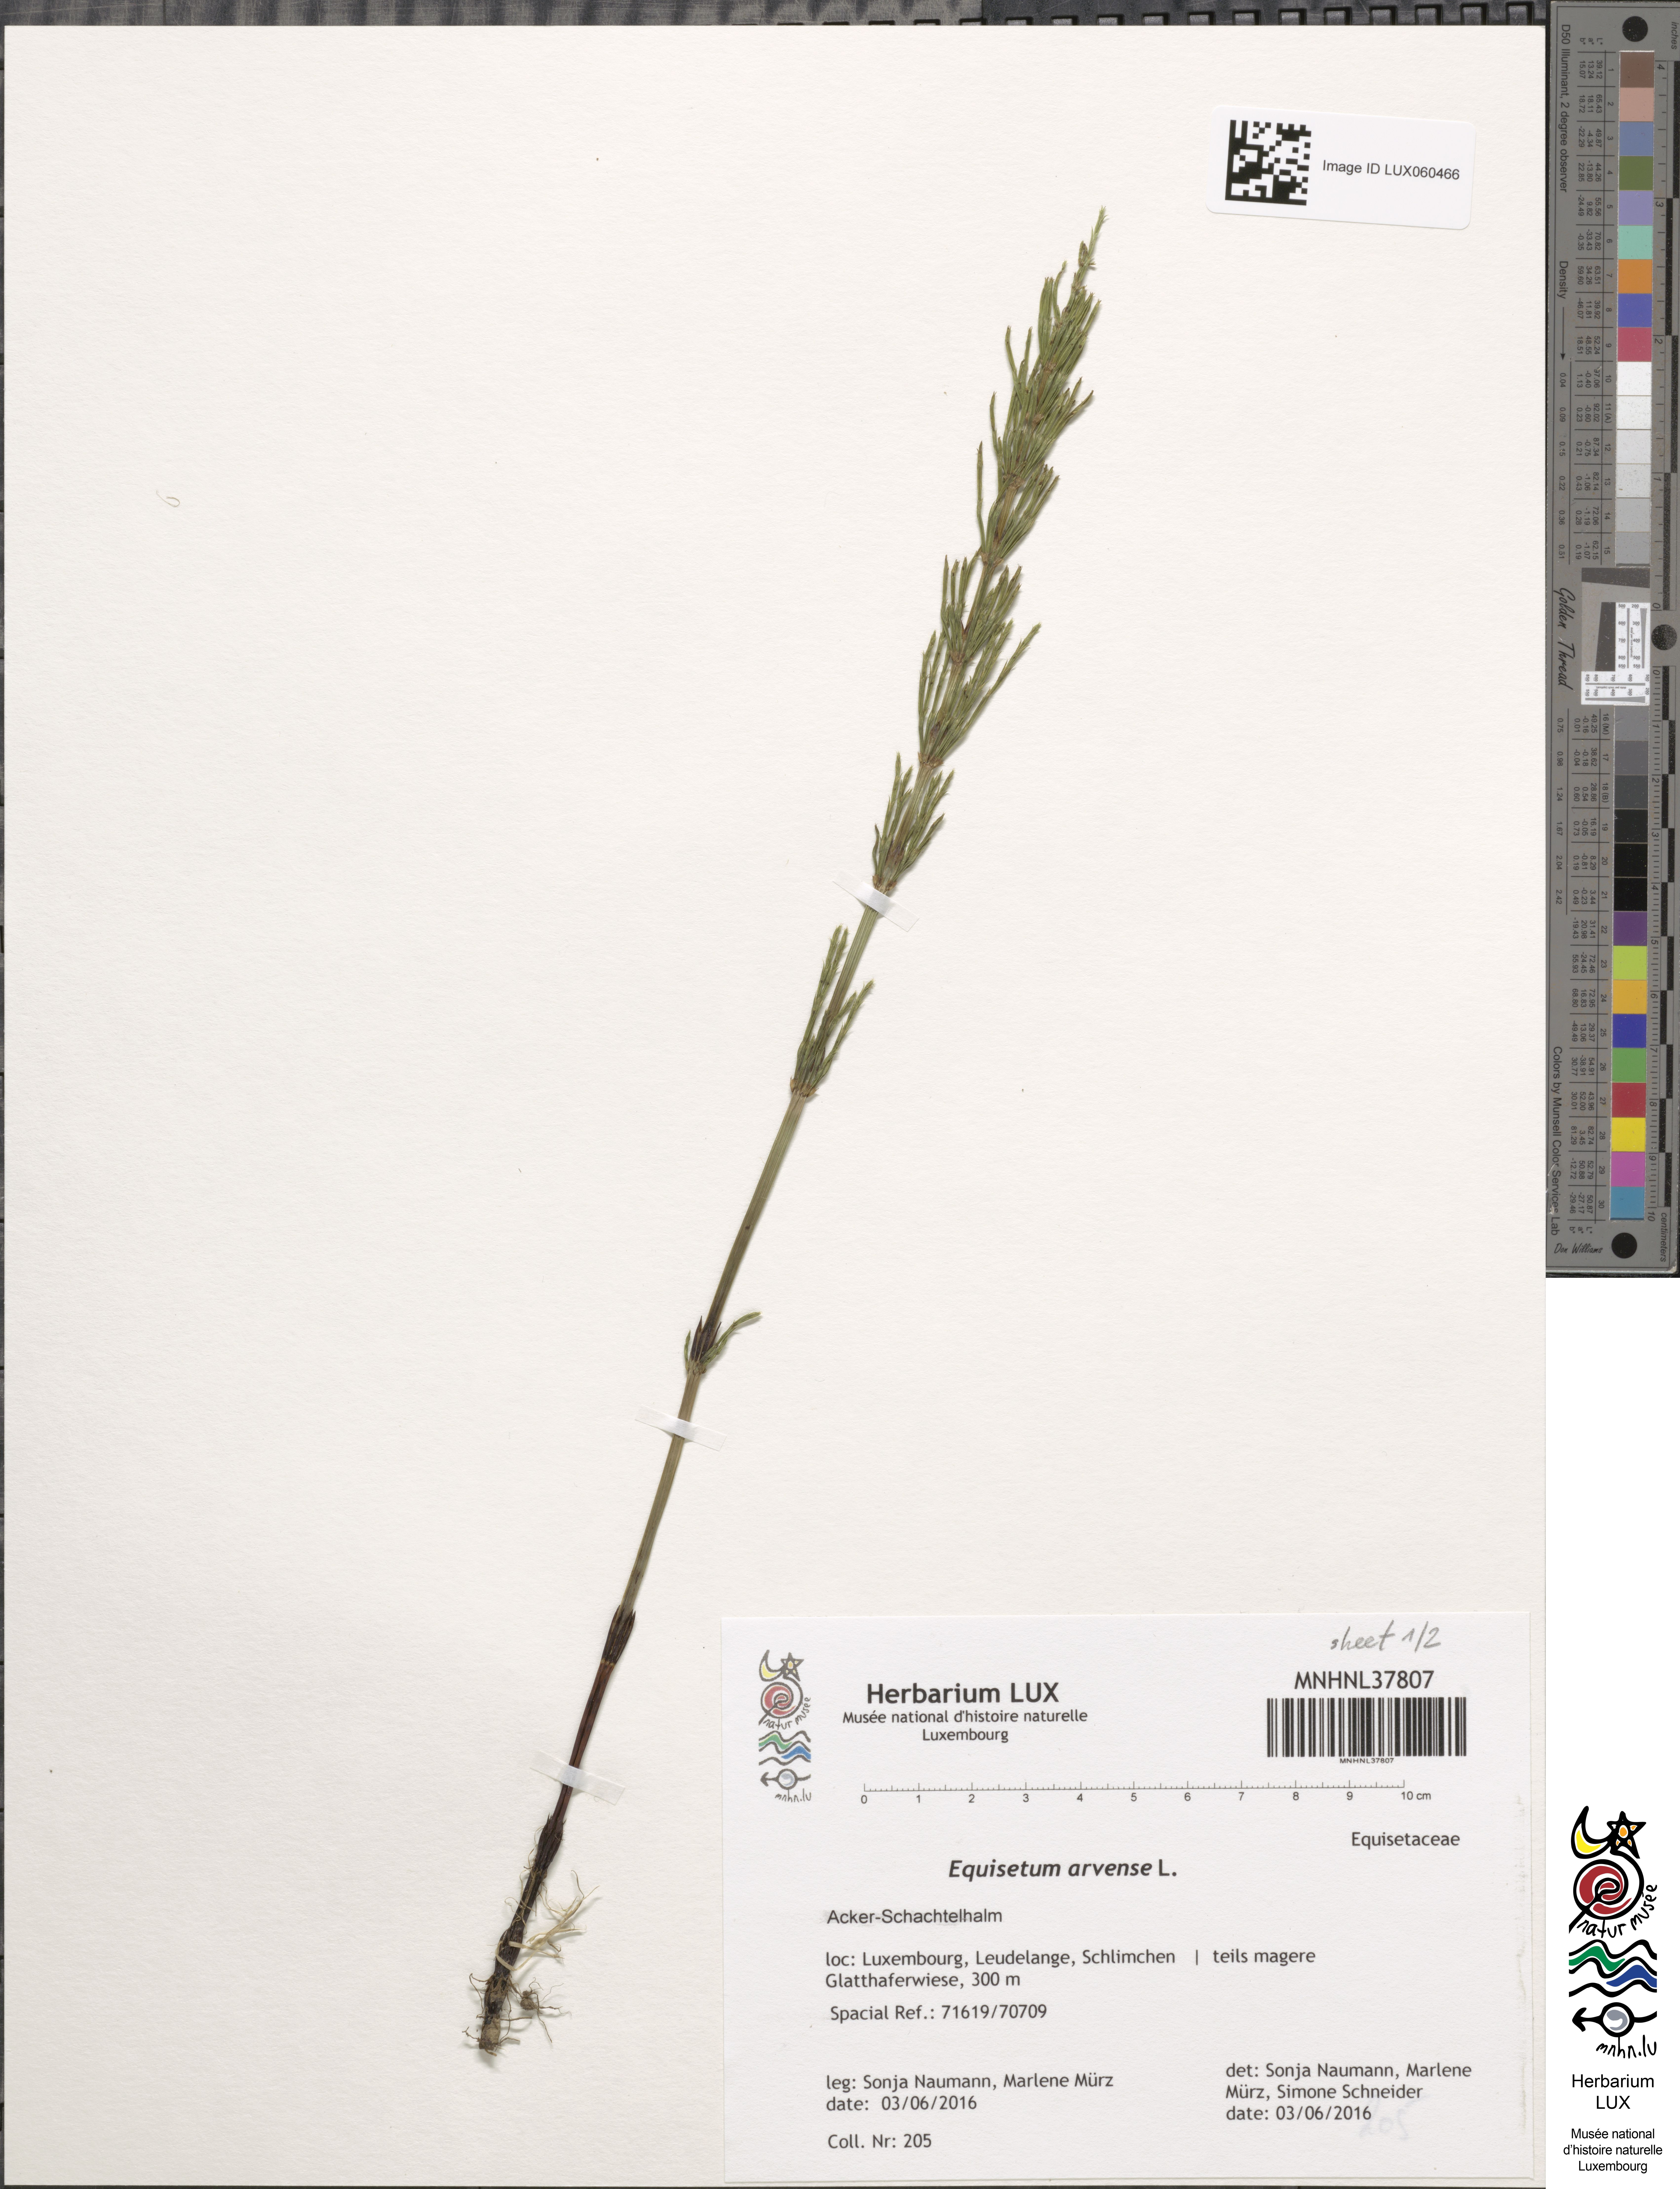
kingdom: Plantae
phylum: Tracheophyta
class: Polypodiopsida
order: Equisetales
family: Equisetaceae
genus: Equisetum
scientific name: Equisetum arvense
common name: Field horsetail
